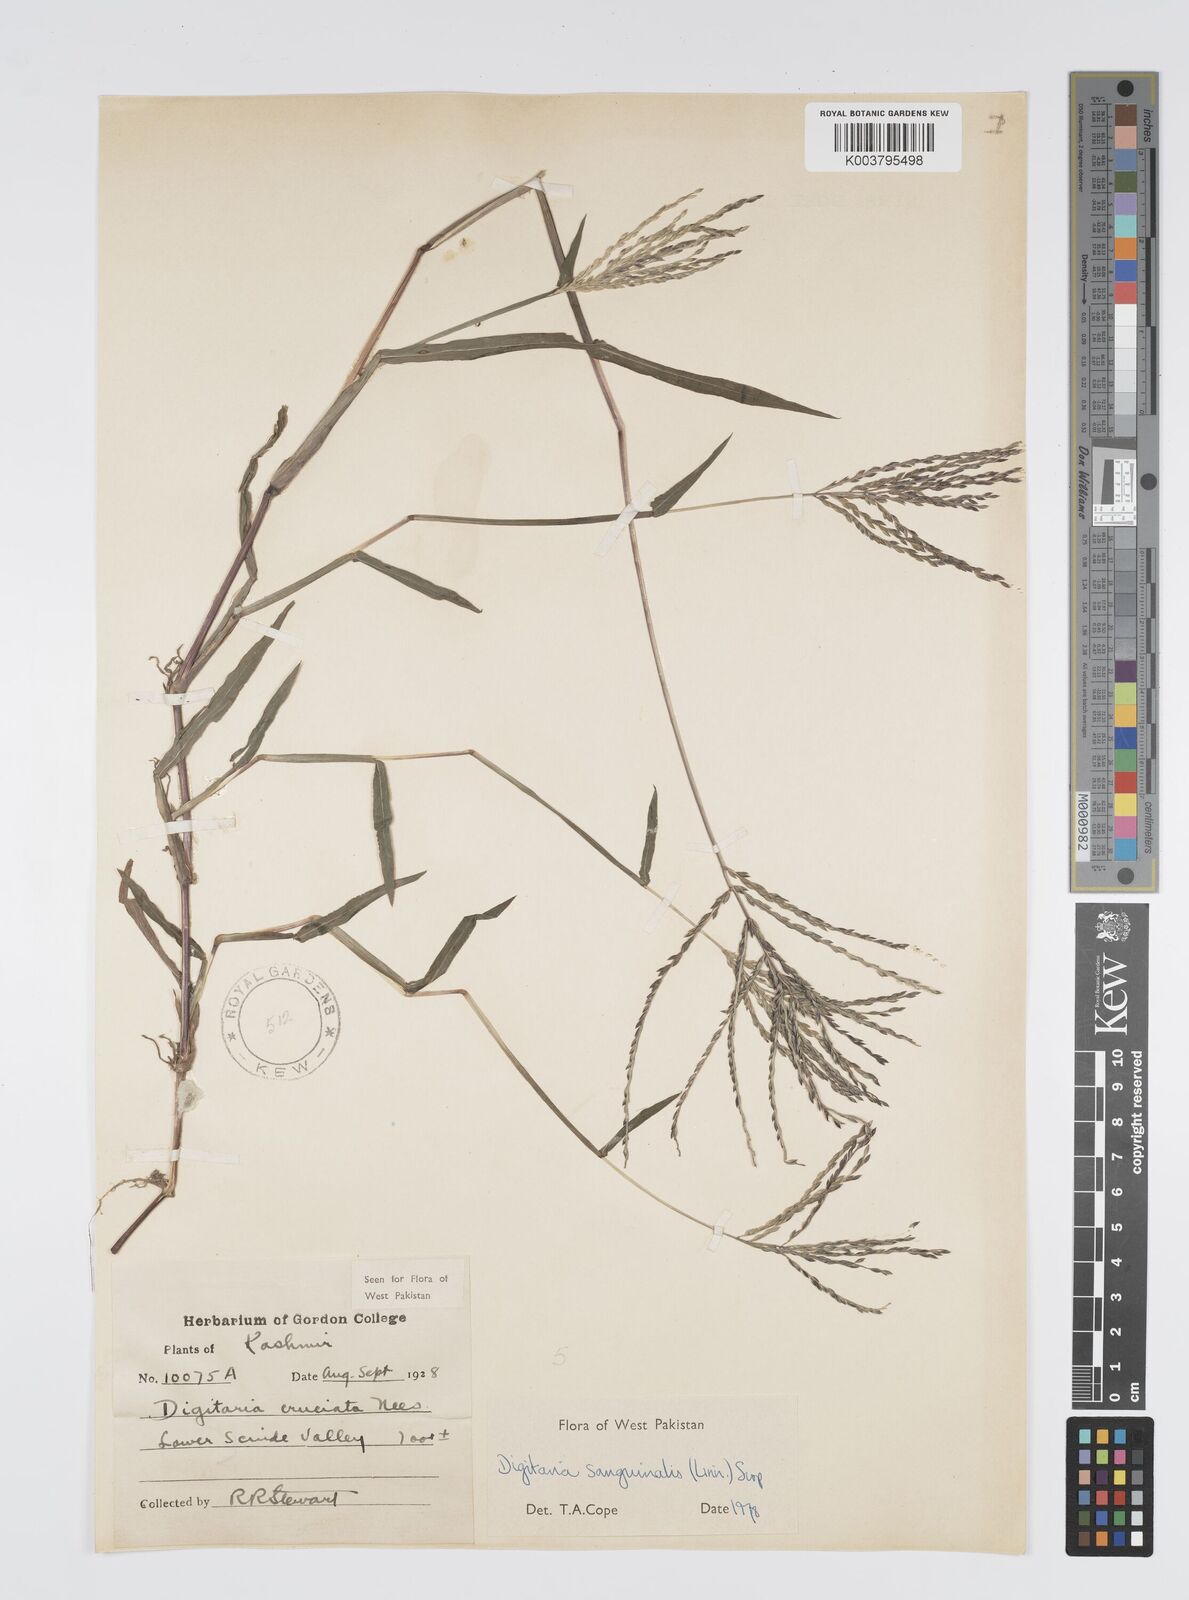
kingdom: Plantae
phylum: Tracheophyta
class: Liliopsida
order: Poales
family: Poaceae
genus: Digitaria
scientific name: Digitaria sanguinalis
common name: Hairy crabgrass
